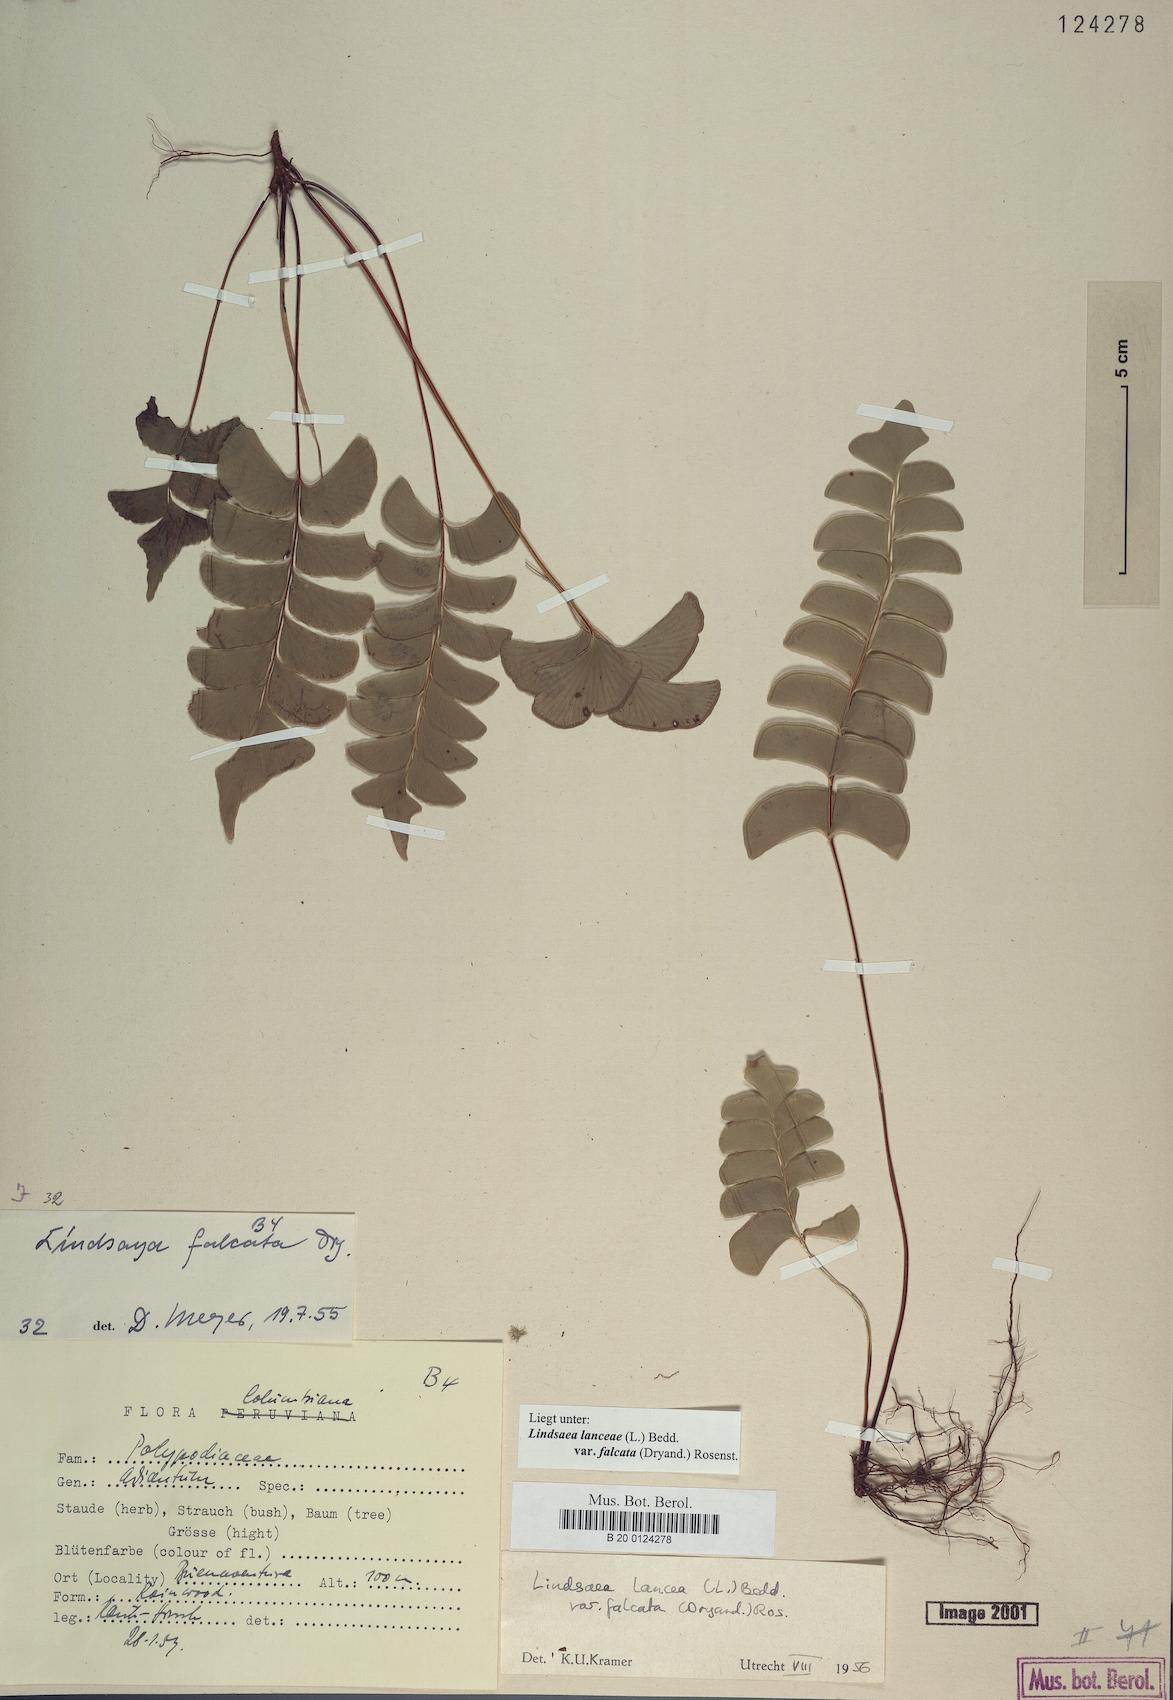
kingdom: Plantae
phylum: Tracheophyta
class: Polypodiopsida
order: Polypodiales
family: Lindsaeaceae
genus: Lindsaea
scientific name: Lindsaea falcata
